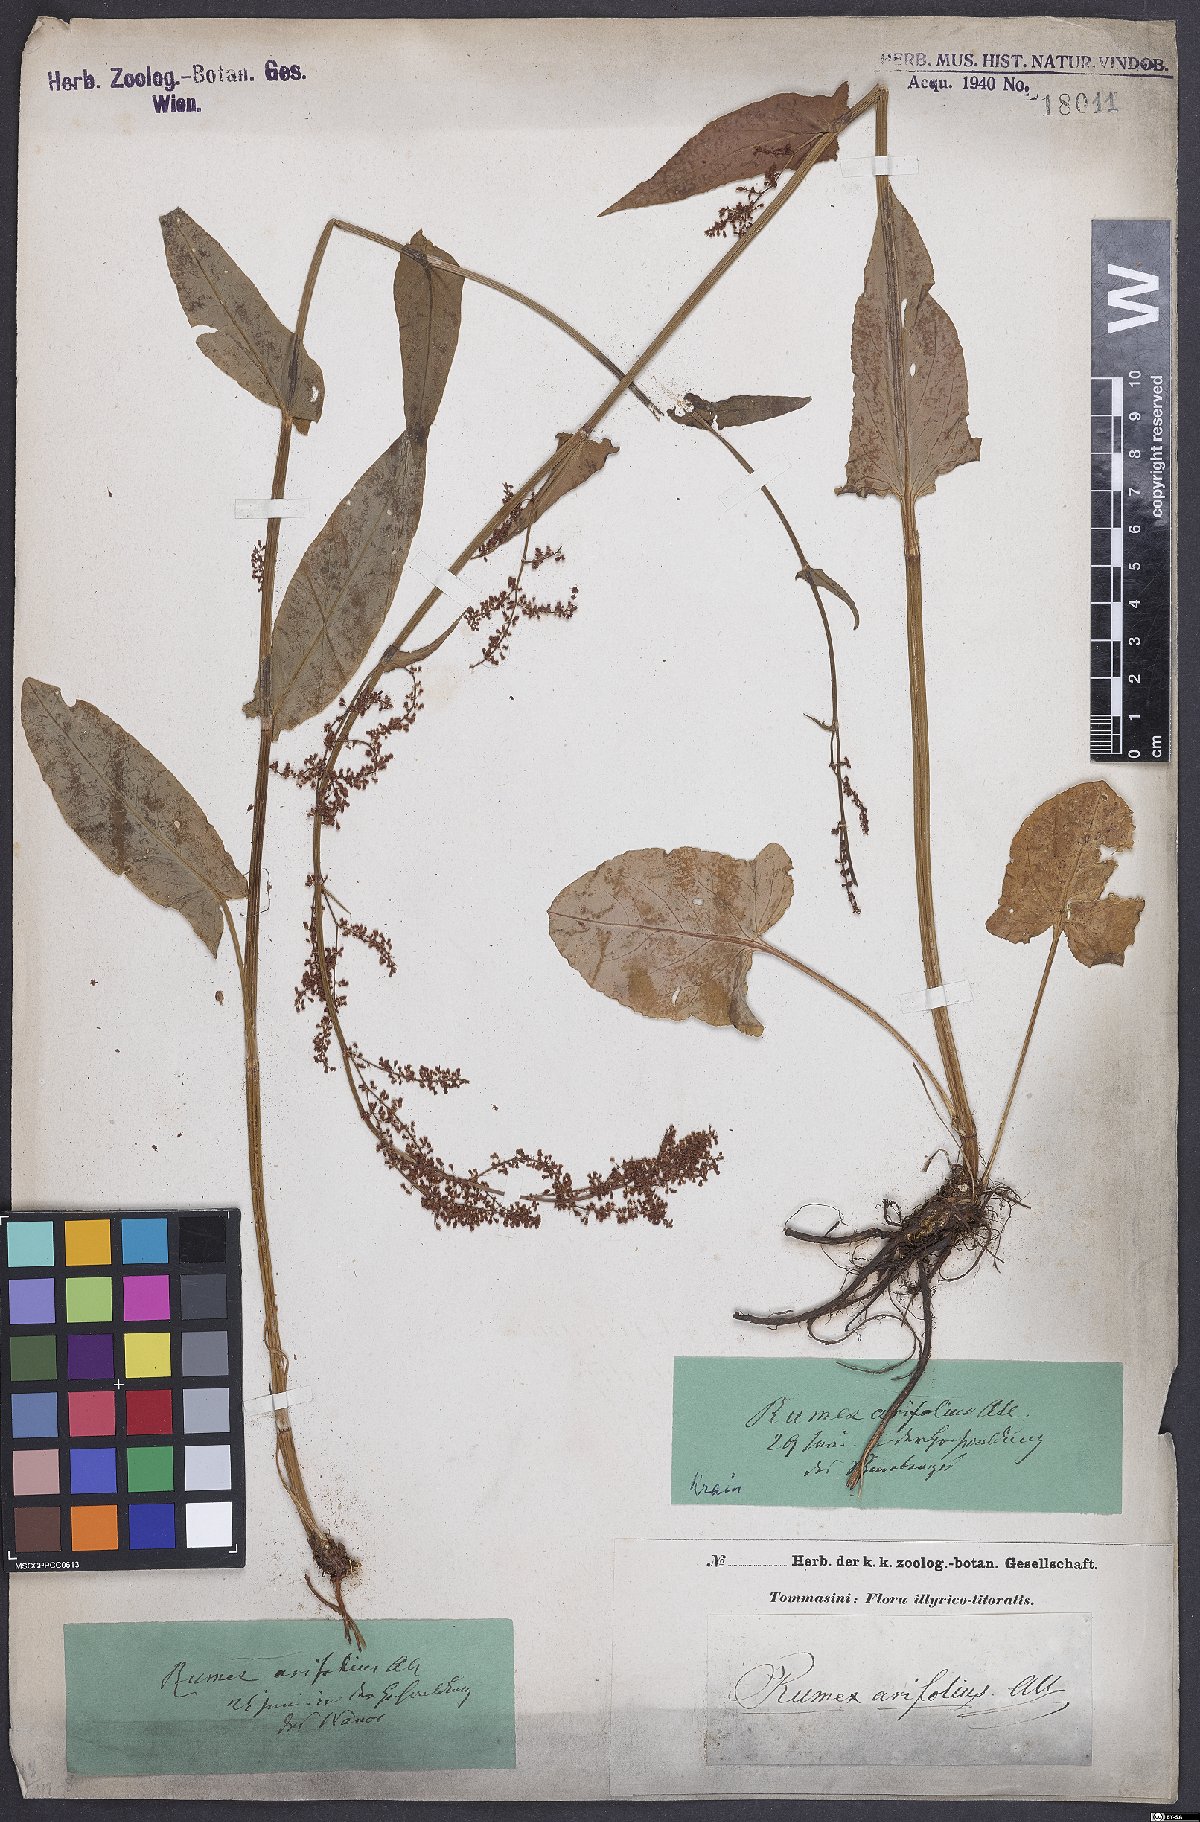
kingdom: Plantae
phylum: Tracheophyta
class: Magnoliopsida
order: Caryophyllales
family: Polygonaceae
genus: Rumex
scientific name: Rumex arifolius
